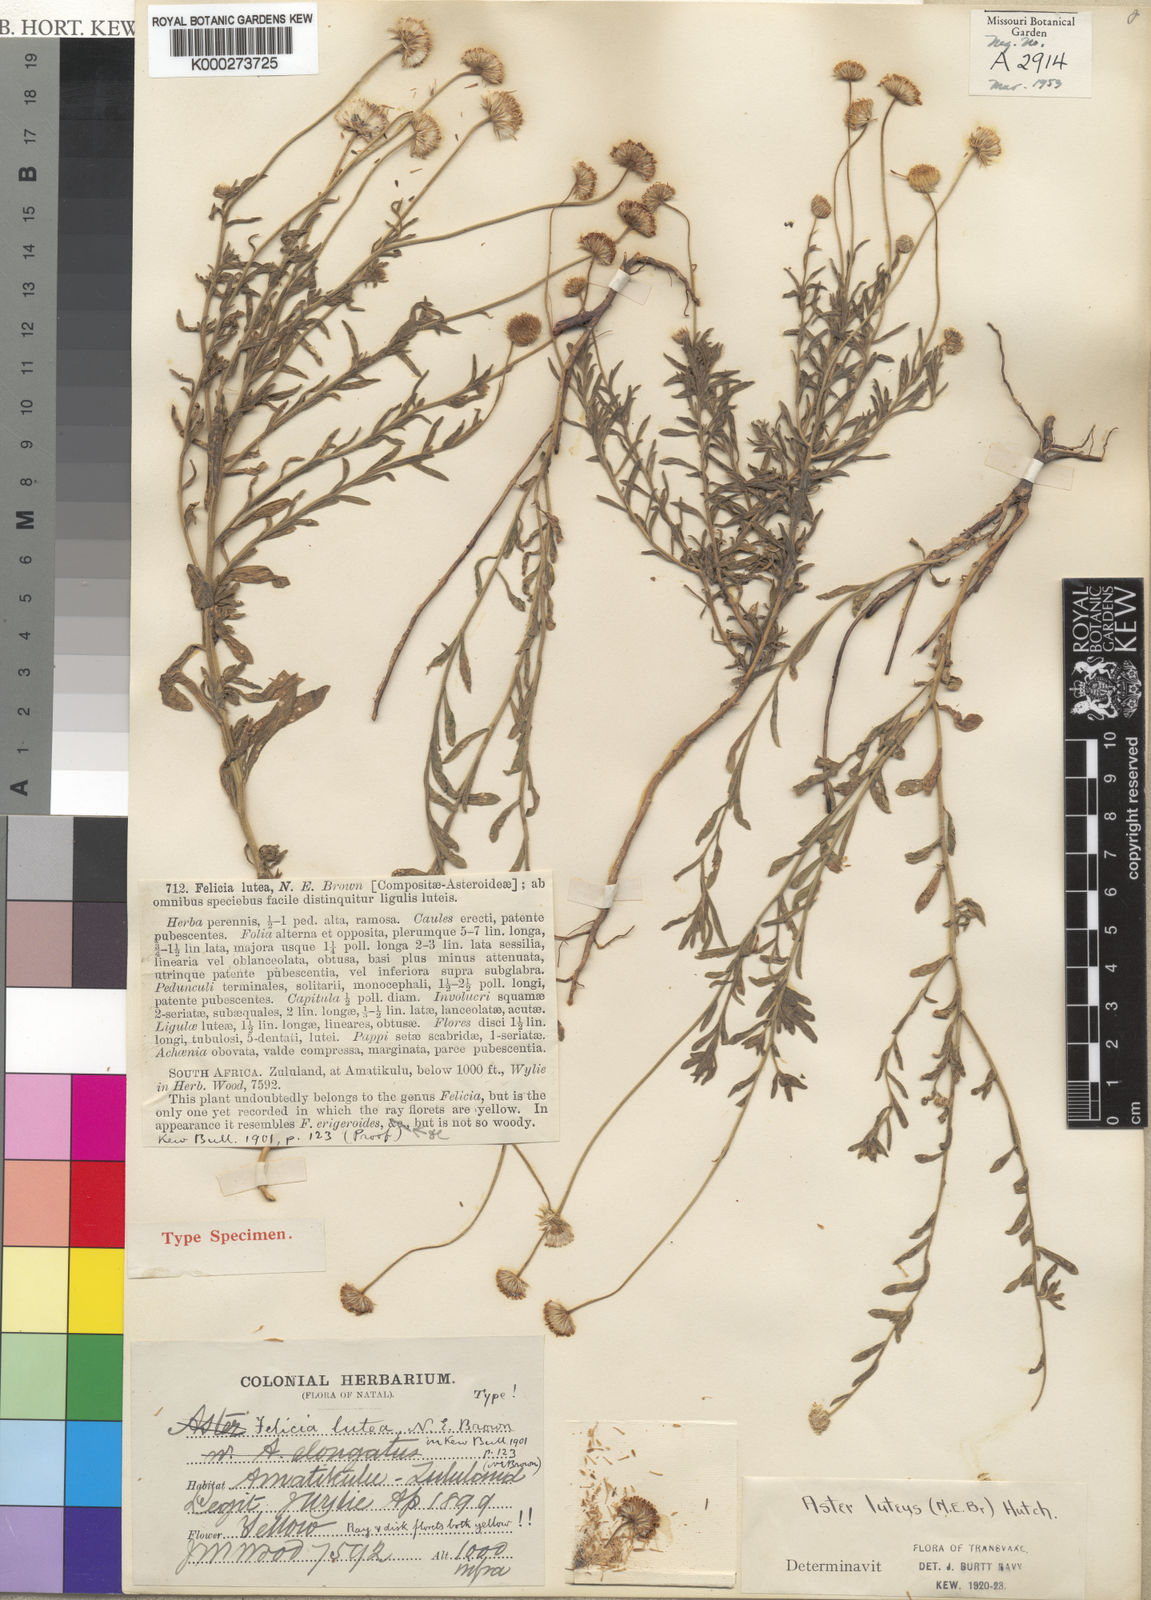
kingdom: Plantae
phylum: Tracheophyta
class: Magnoliopsida
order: Asterales
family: Asteraceae
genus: Felicia
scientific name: Felicia mossamedensis
